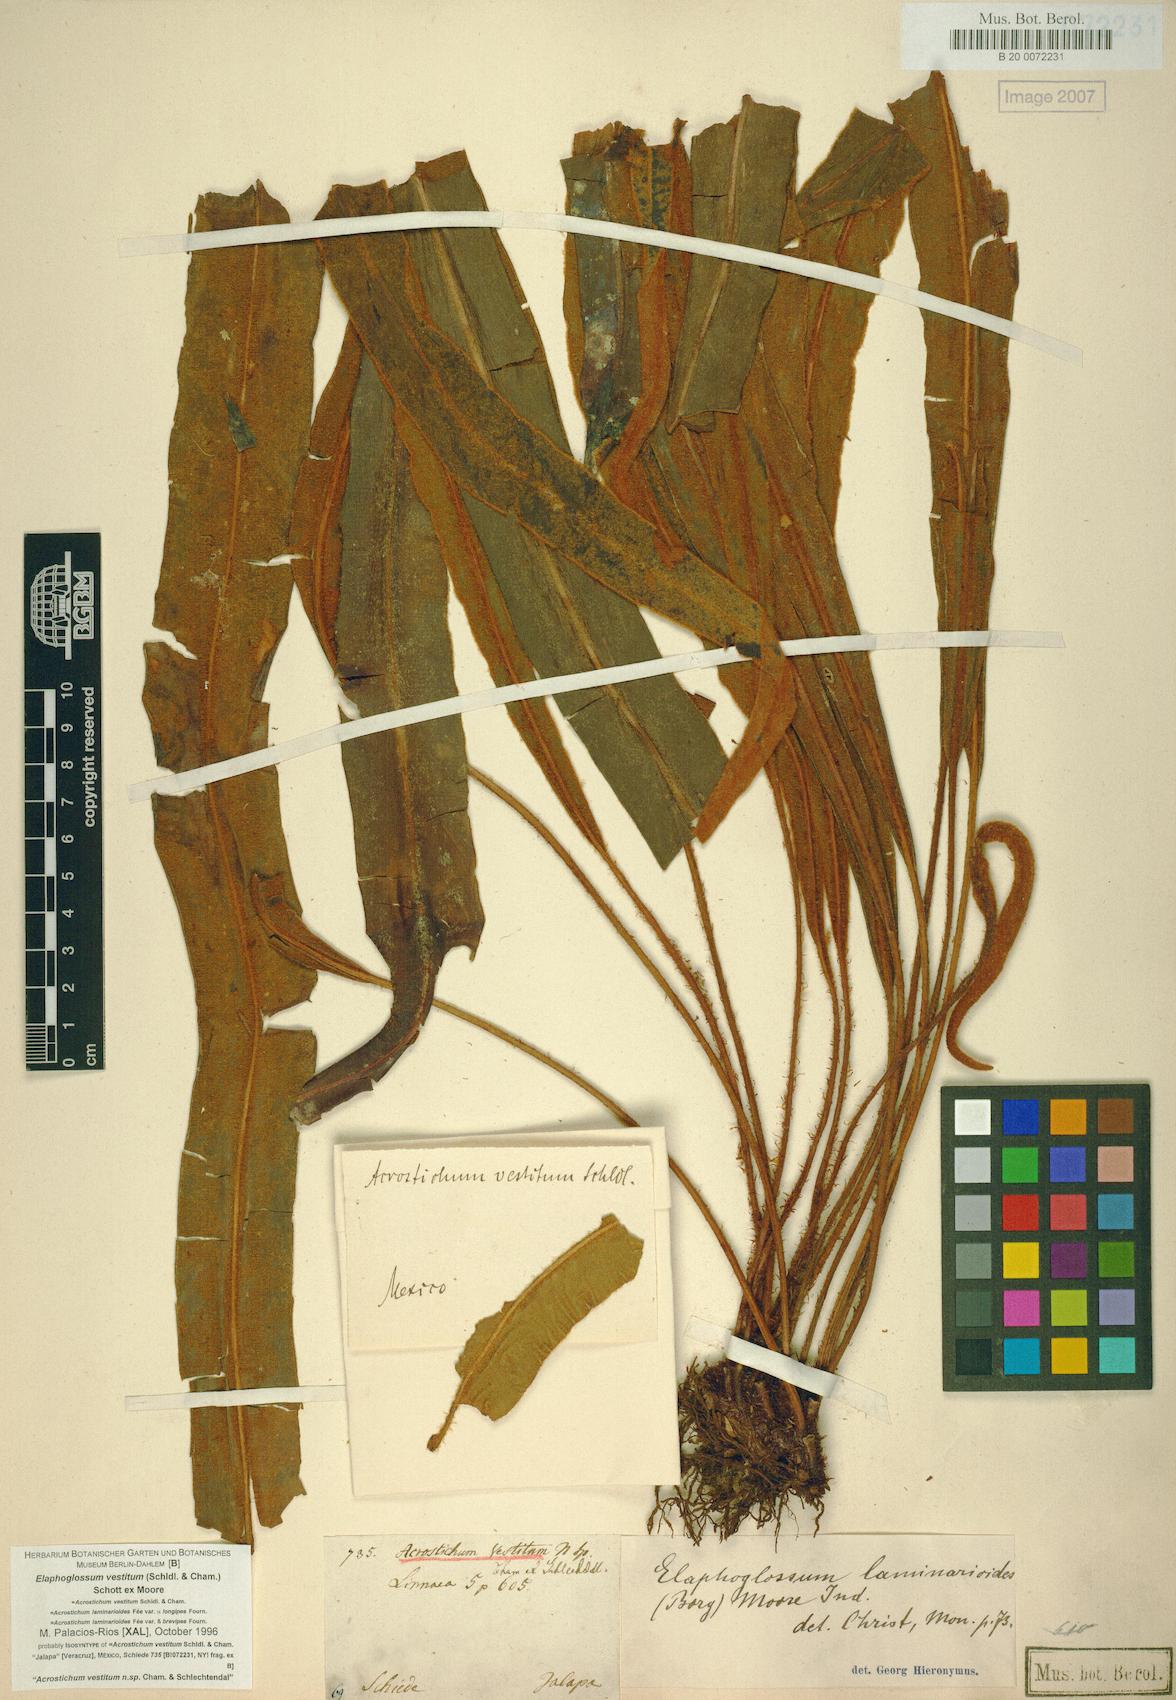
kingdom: Plantae
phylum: Tracheophyta
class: Polypodiopsida
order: Polypodiales
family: Dryopteridaceae
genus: Elaphoglossum
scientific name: Elaphoglossum vestitum
